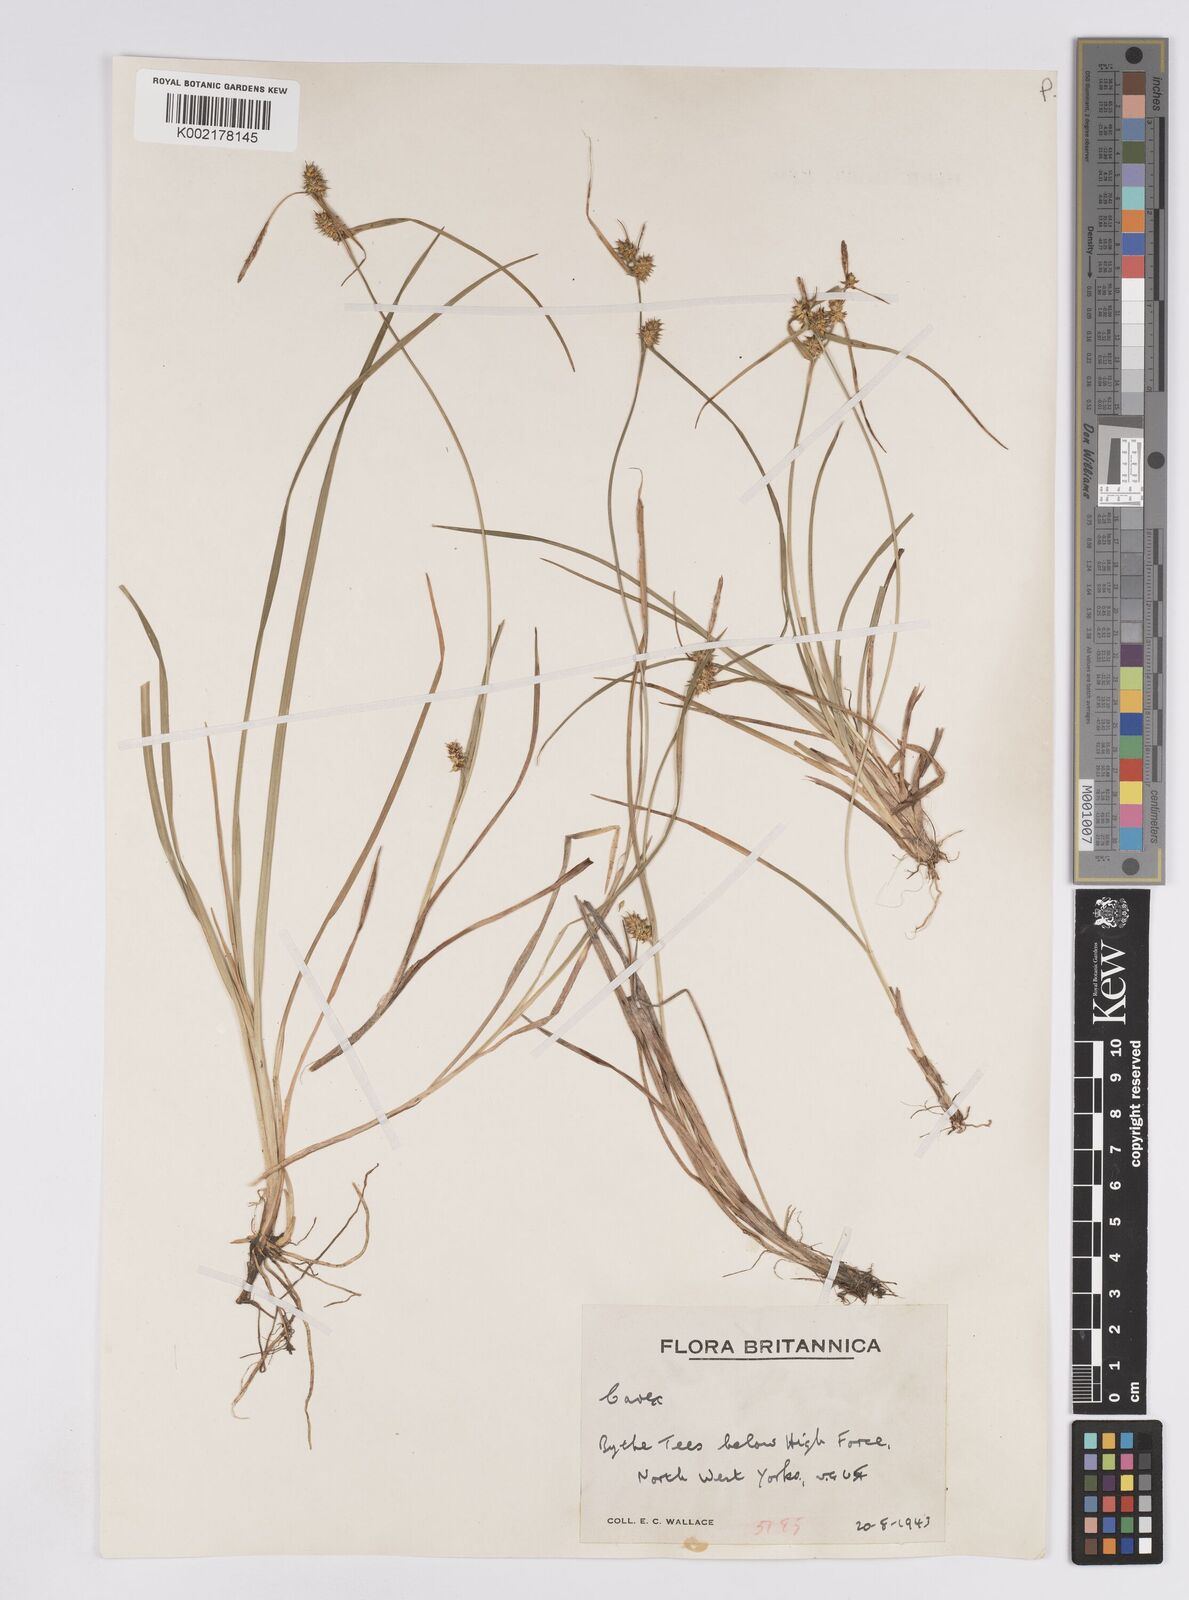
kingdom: Plantae
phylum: Tracheophyta
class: Liliopsida
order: Poales
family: Cyperaceae
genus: Carex
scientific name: Carex demissa
